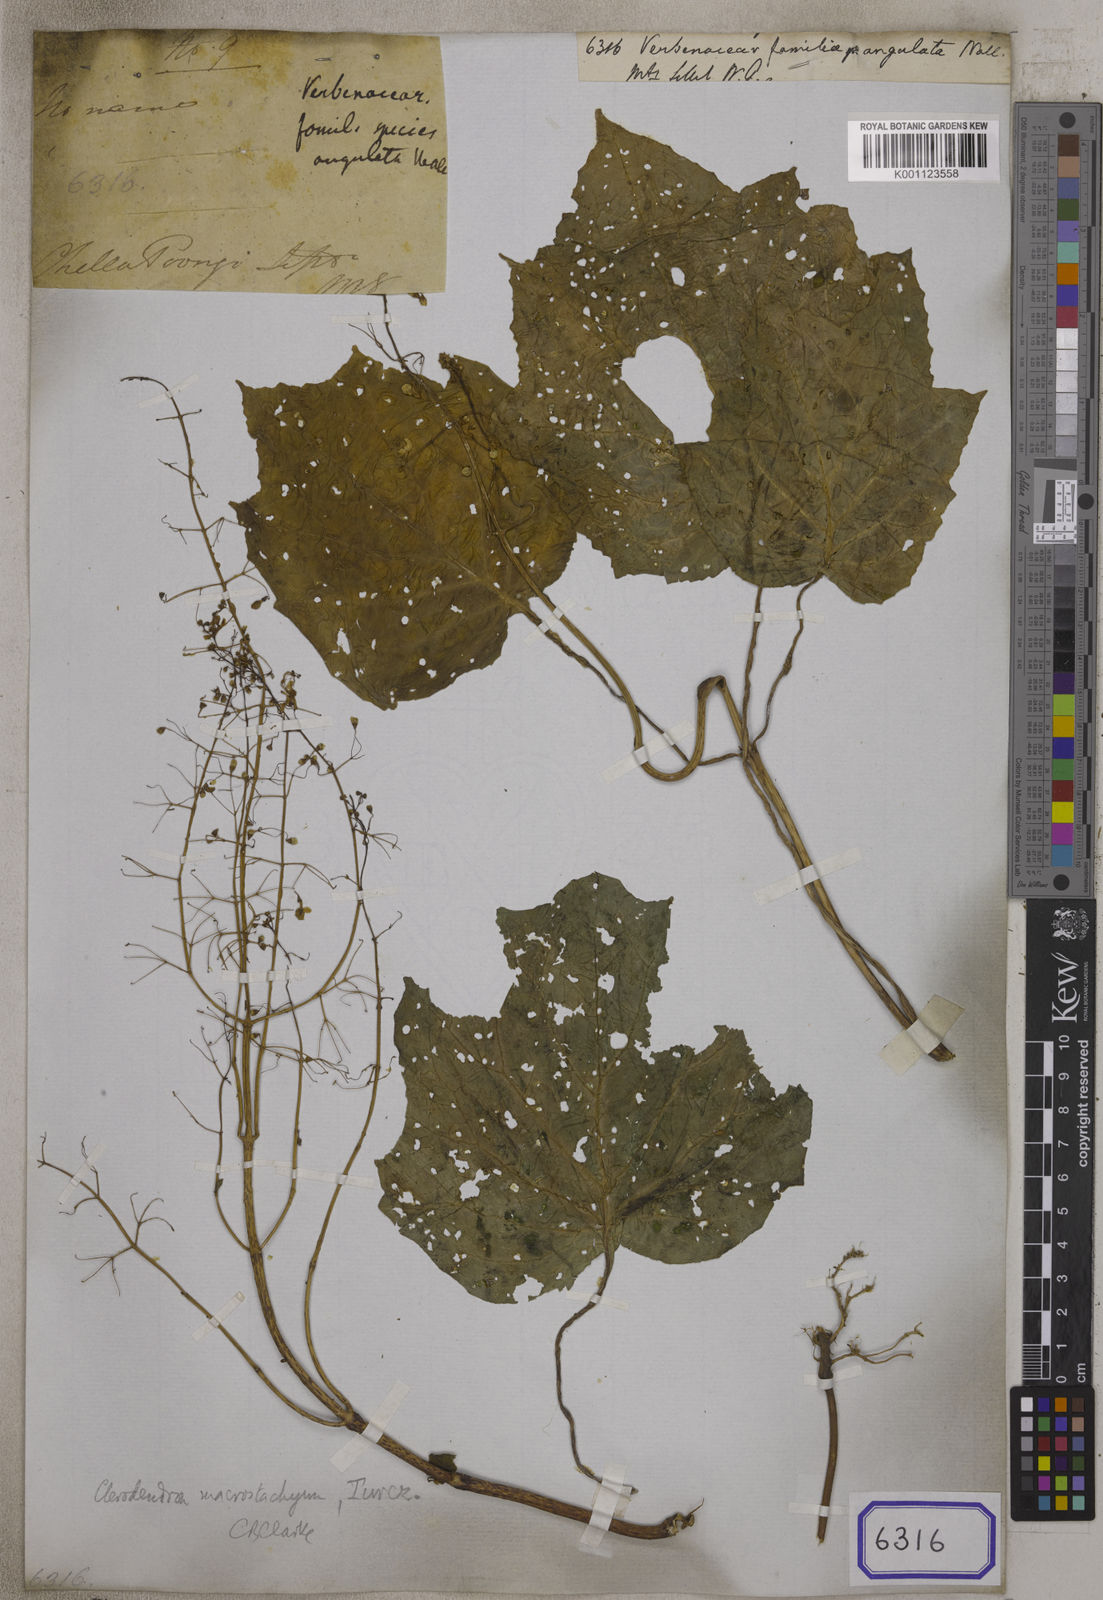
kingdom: Plantae
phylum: Tracheophyta
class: Magnoliopsida
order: Lamiales
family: Verbenaceae
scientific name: Verbenaceae
